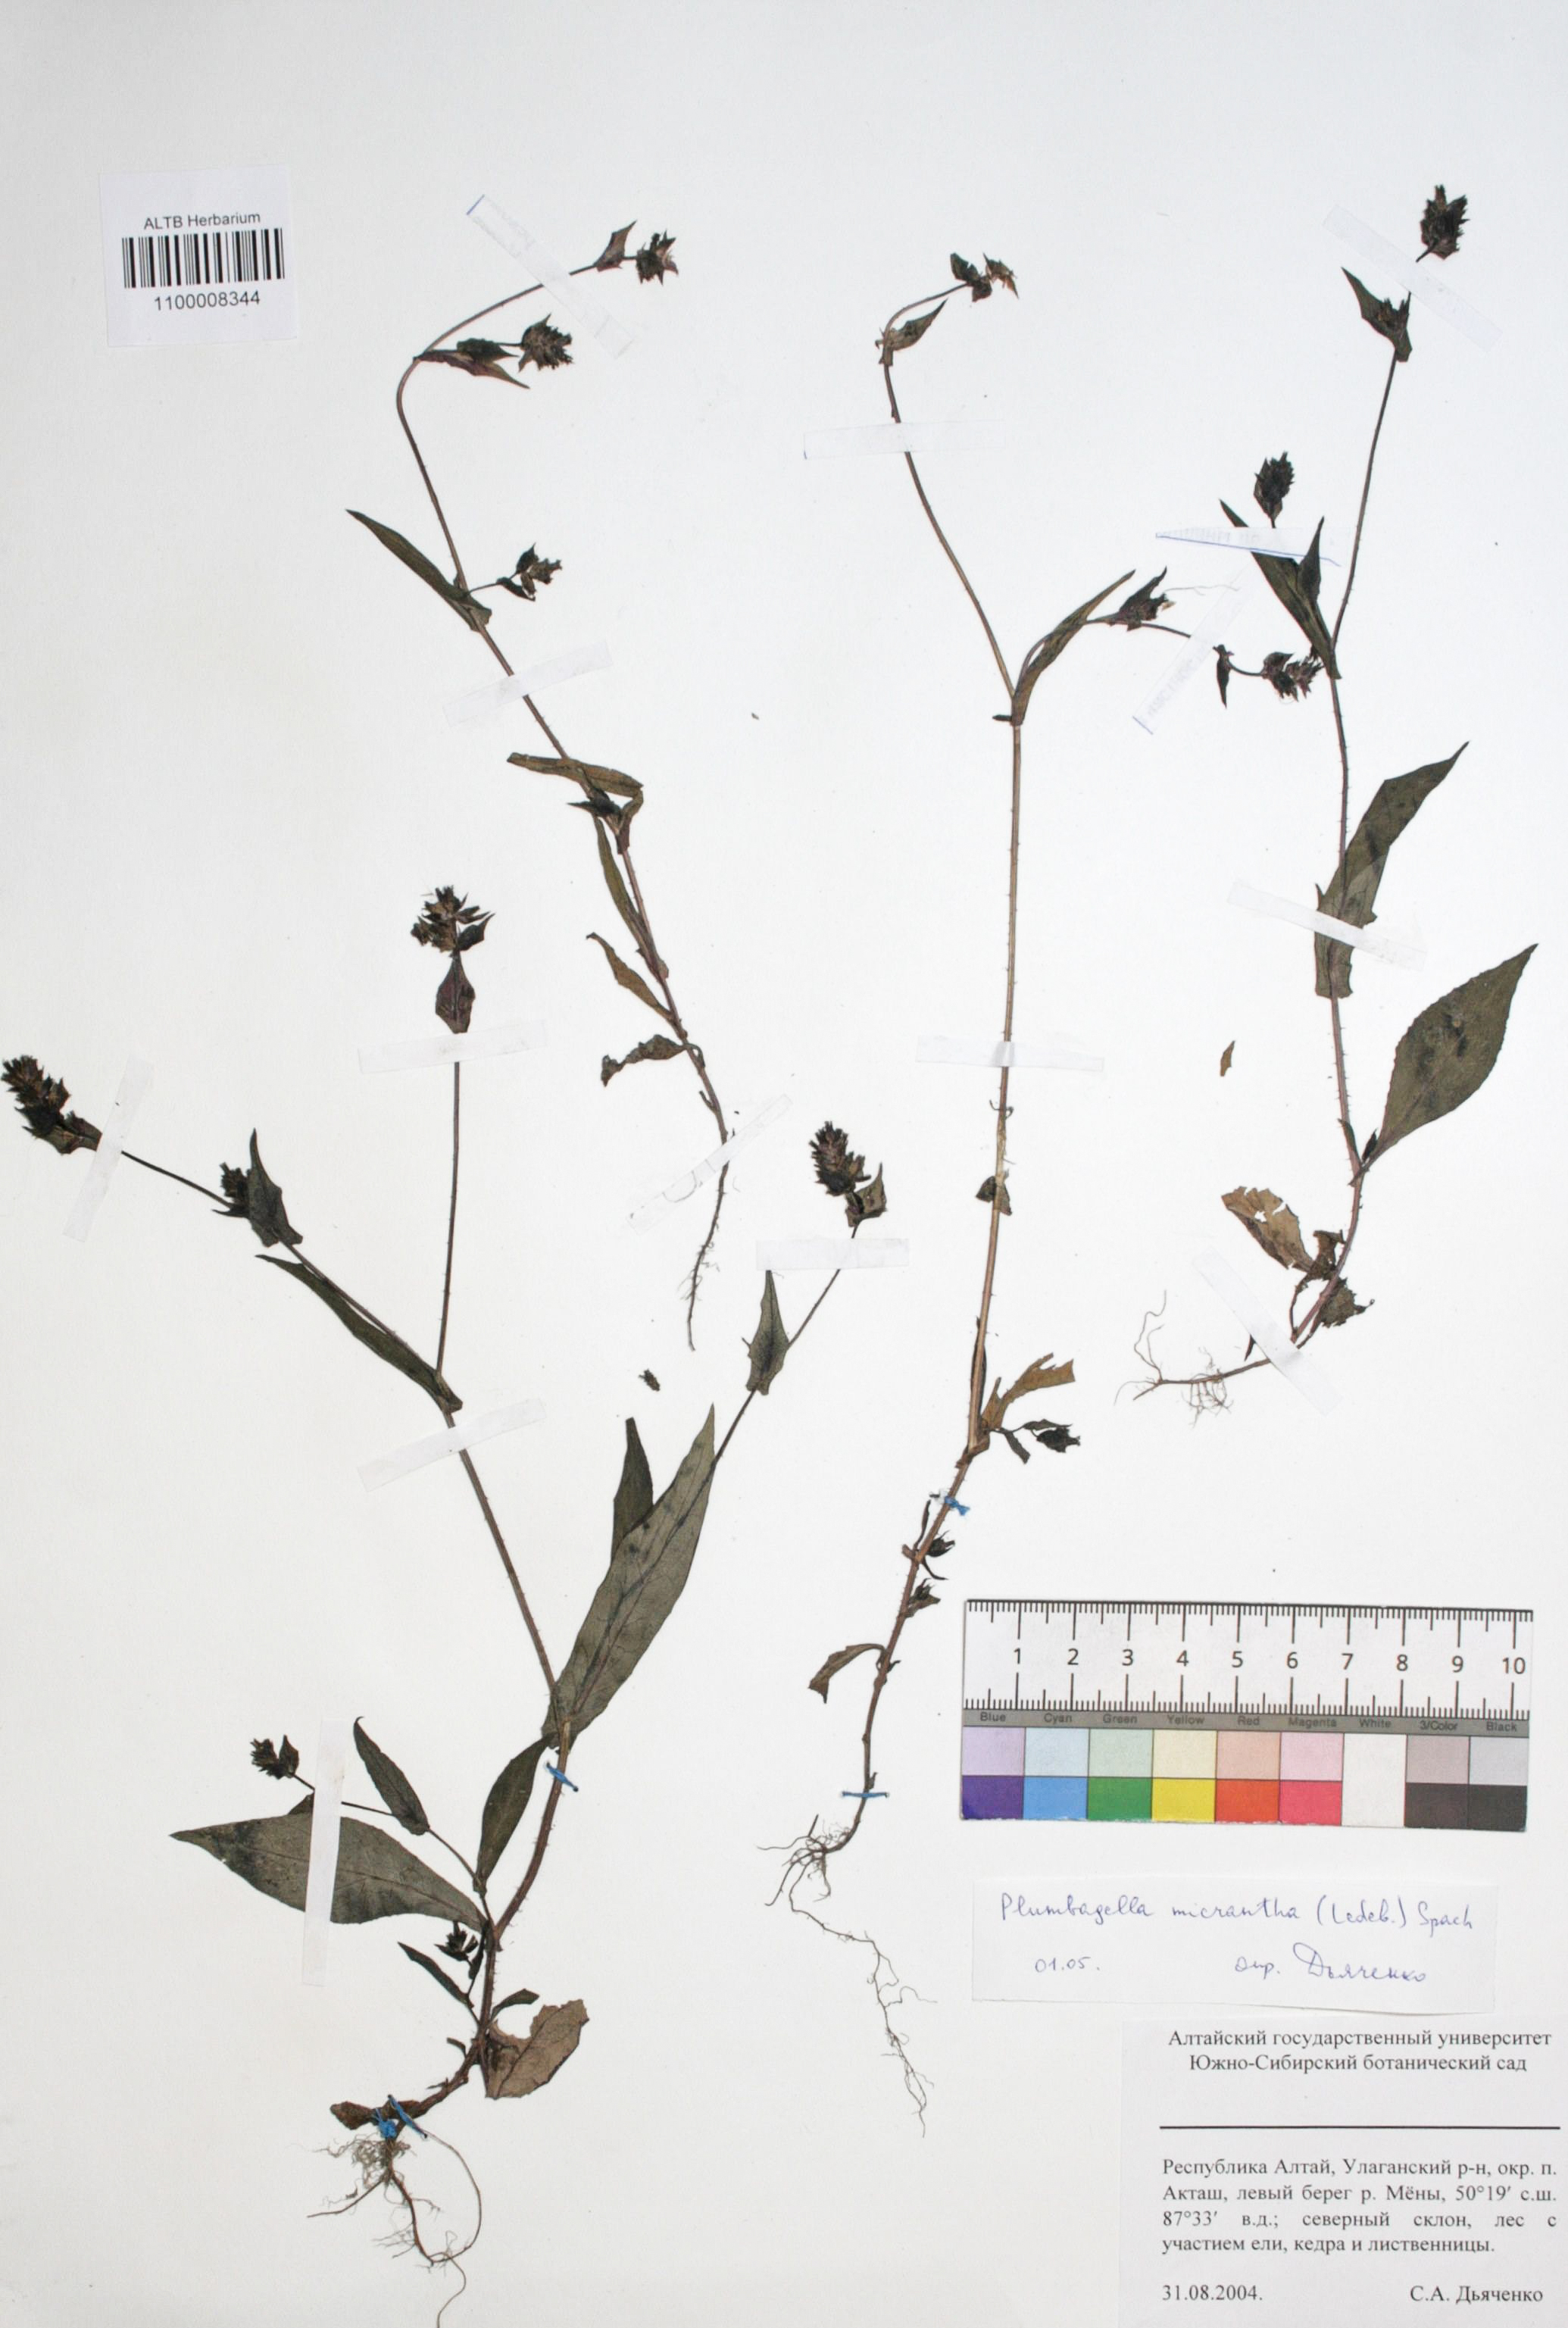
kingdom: Plantae
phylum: Tracheophyta
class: Magnoliopsida
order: Caryophyllales
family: Plumbaginaceae
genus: Plumbagella
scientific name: Plumbagella micrantha
